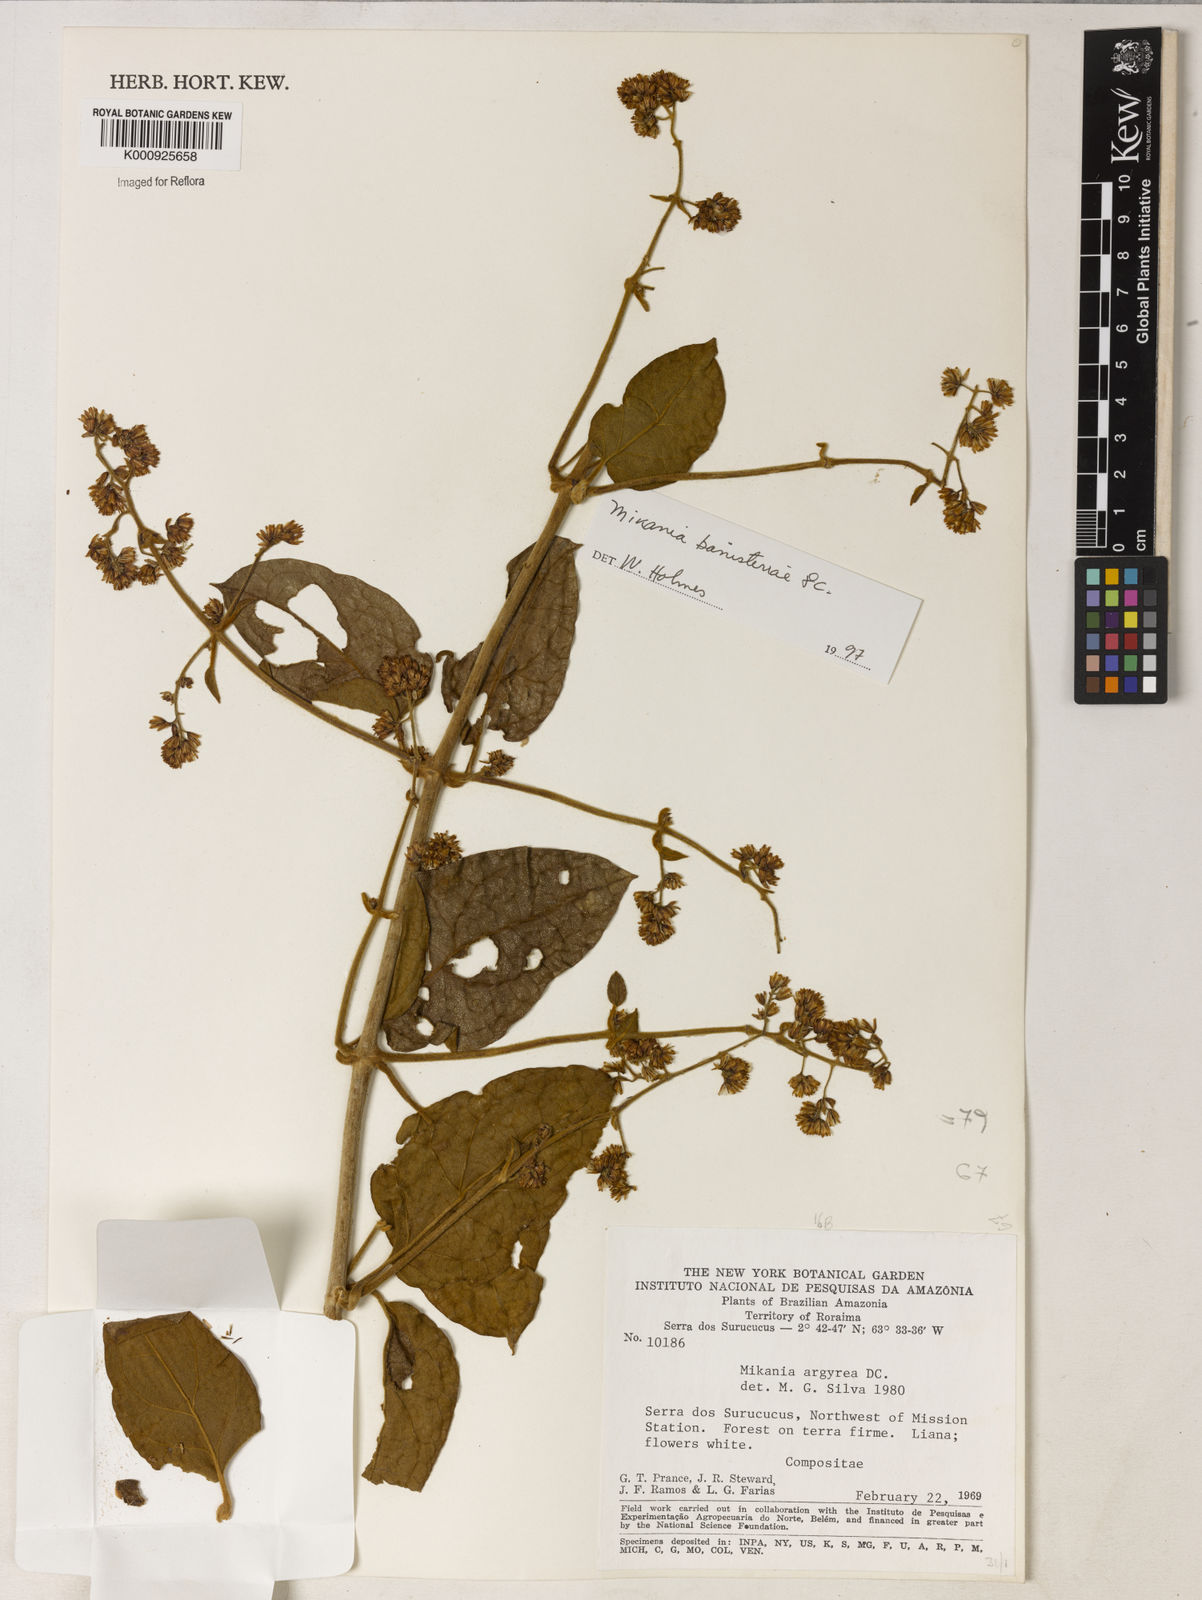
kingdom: Plantae
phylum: Tracheophyta
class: Magnoliopsida
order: Asterales
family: Asteraceae
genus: Mikania
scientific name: Mikania banisteriae
